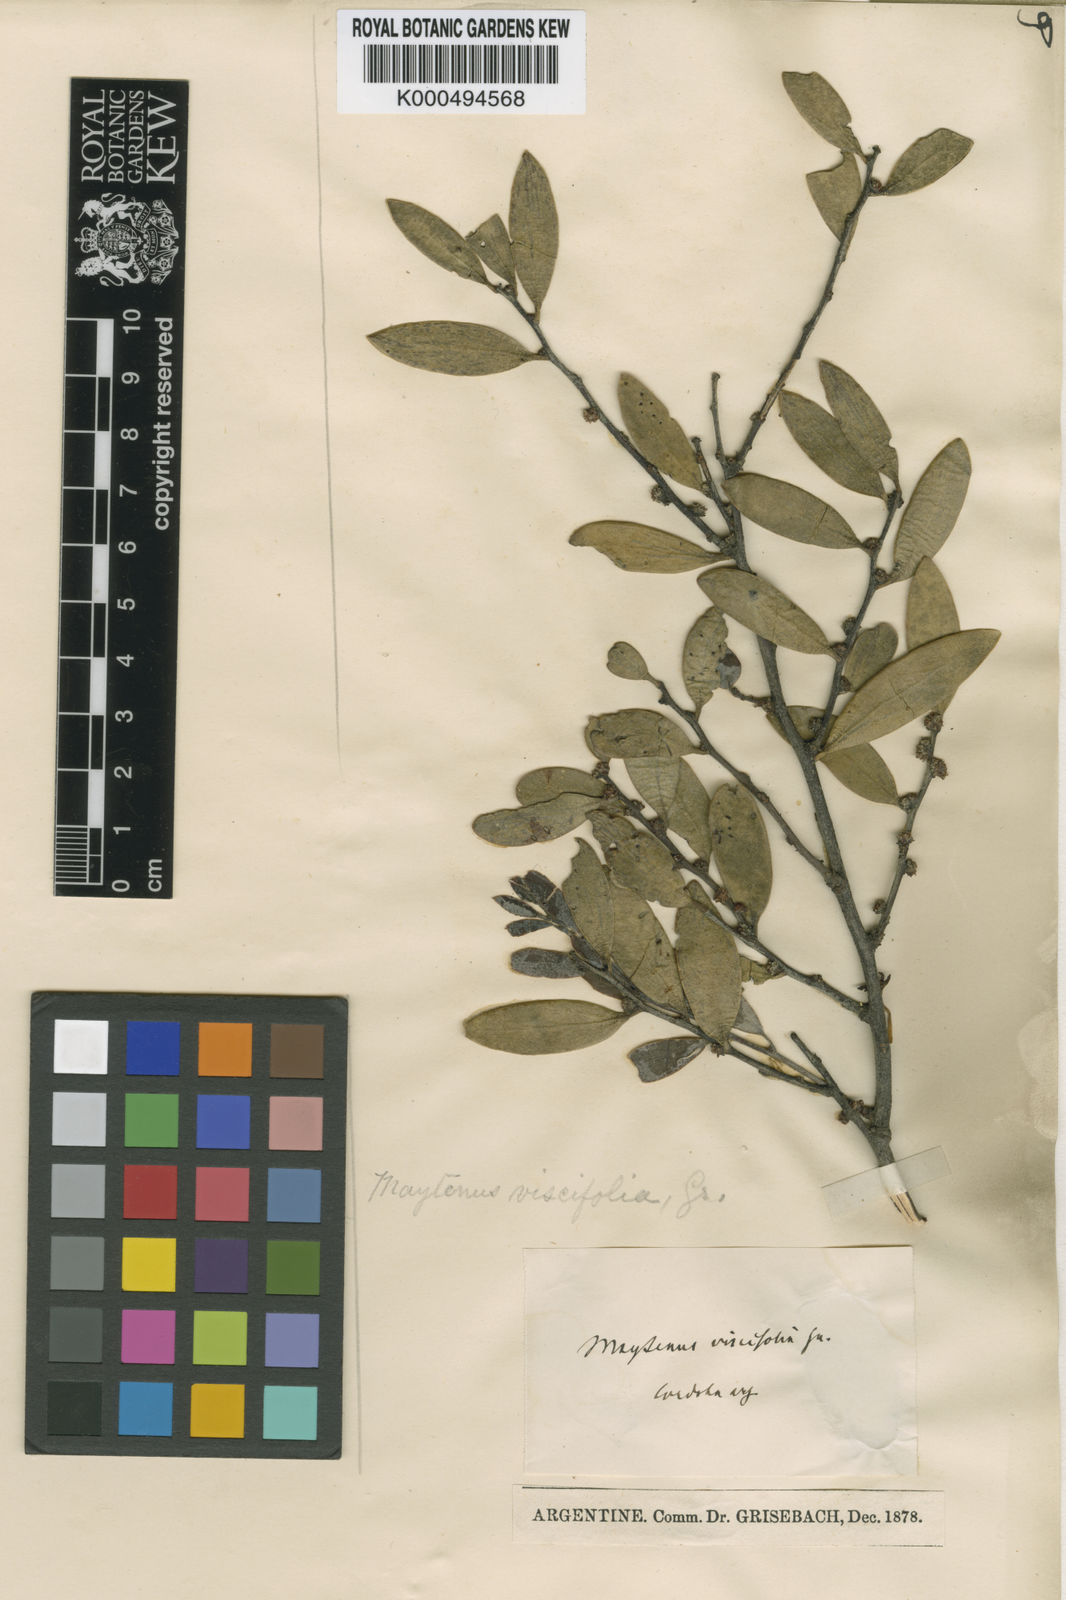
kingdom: Plantae
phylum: Tracheophyta
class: Magnoliopsida
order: Celastrales
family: Celastraceae
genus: Tricerma
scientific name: Tricerma vitis-idaeum
